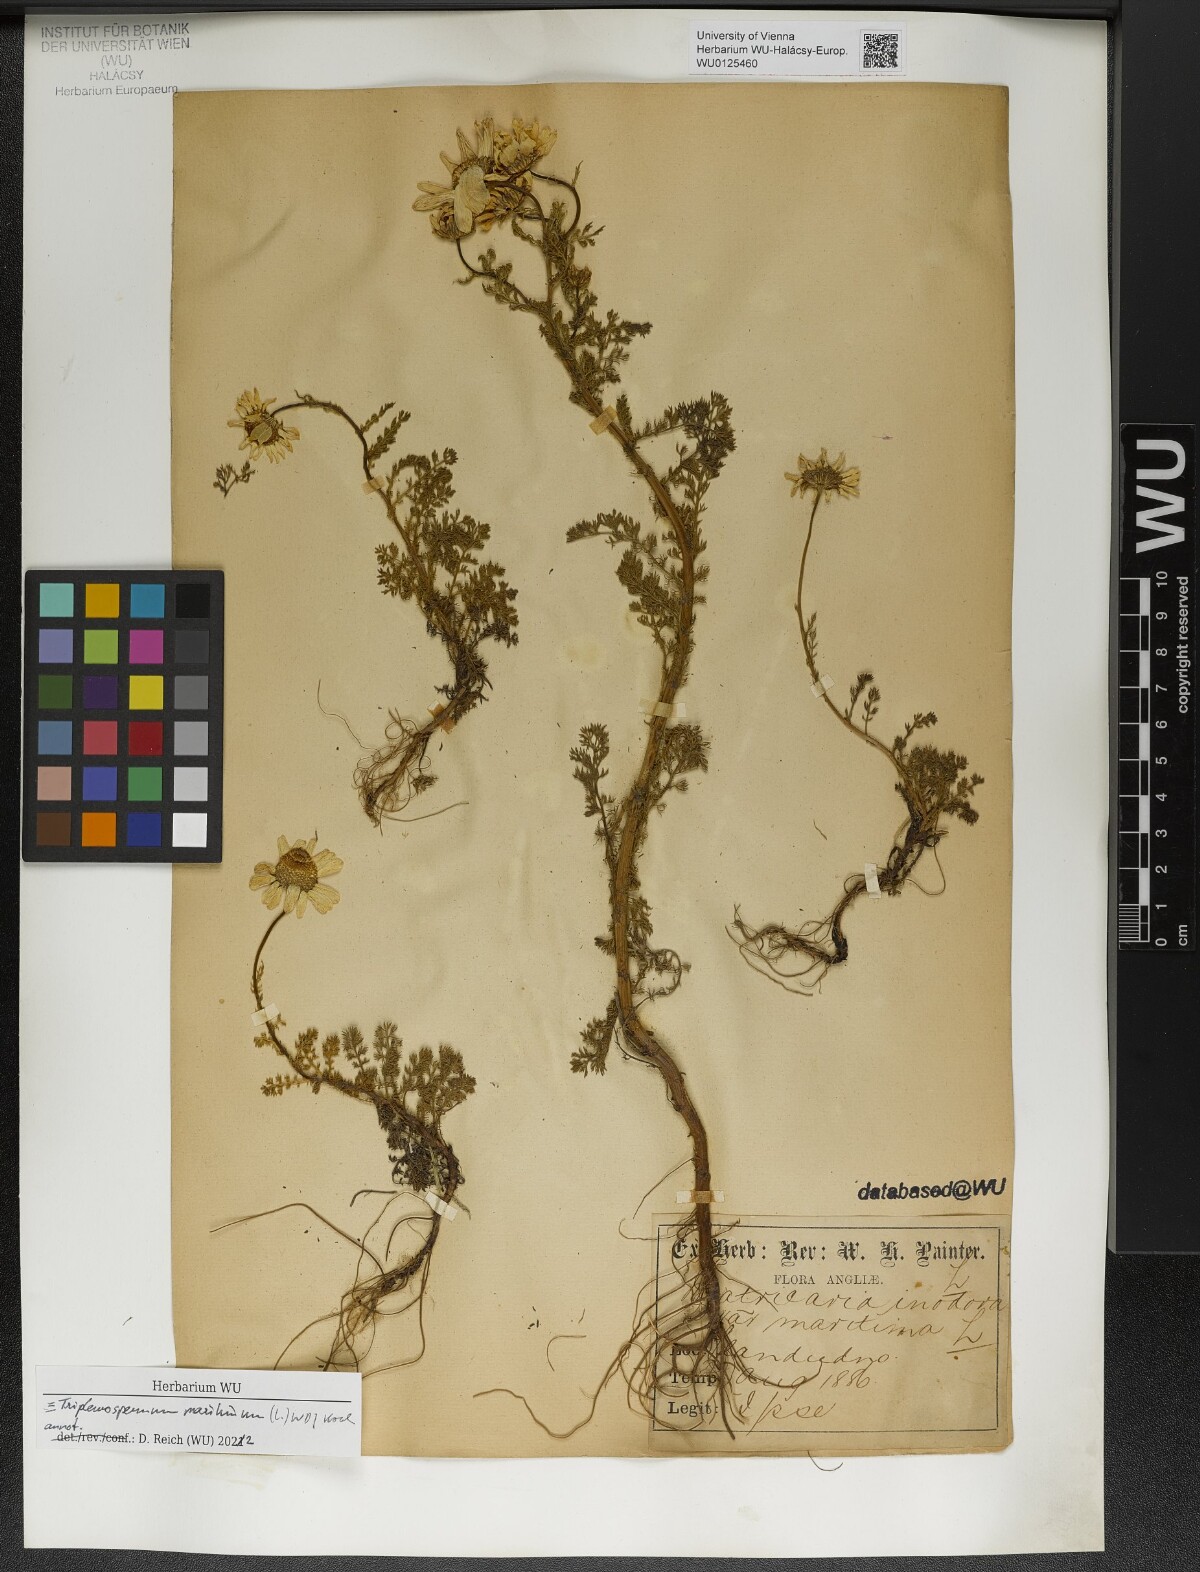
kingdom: Plantae
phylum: Tracheophyta
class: Magnoliopsida
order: Asterales
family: Asteraceae
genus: Tripleurospermum
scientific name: Tripleurospermum maritimum
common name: Sea mayweed
